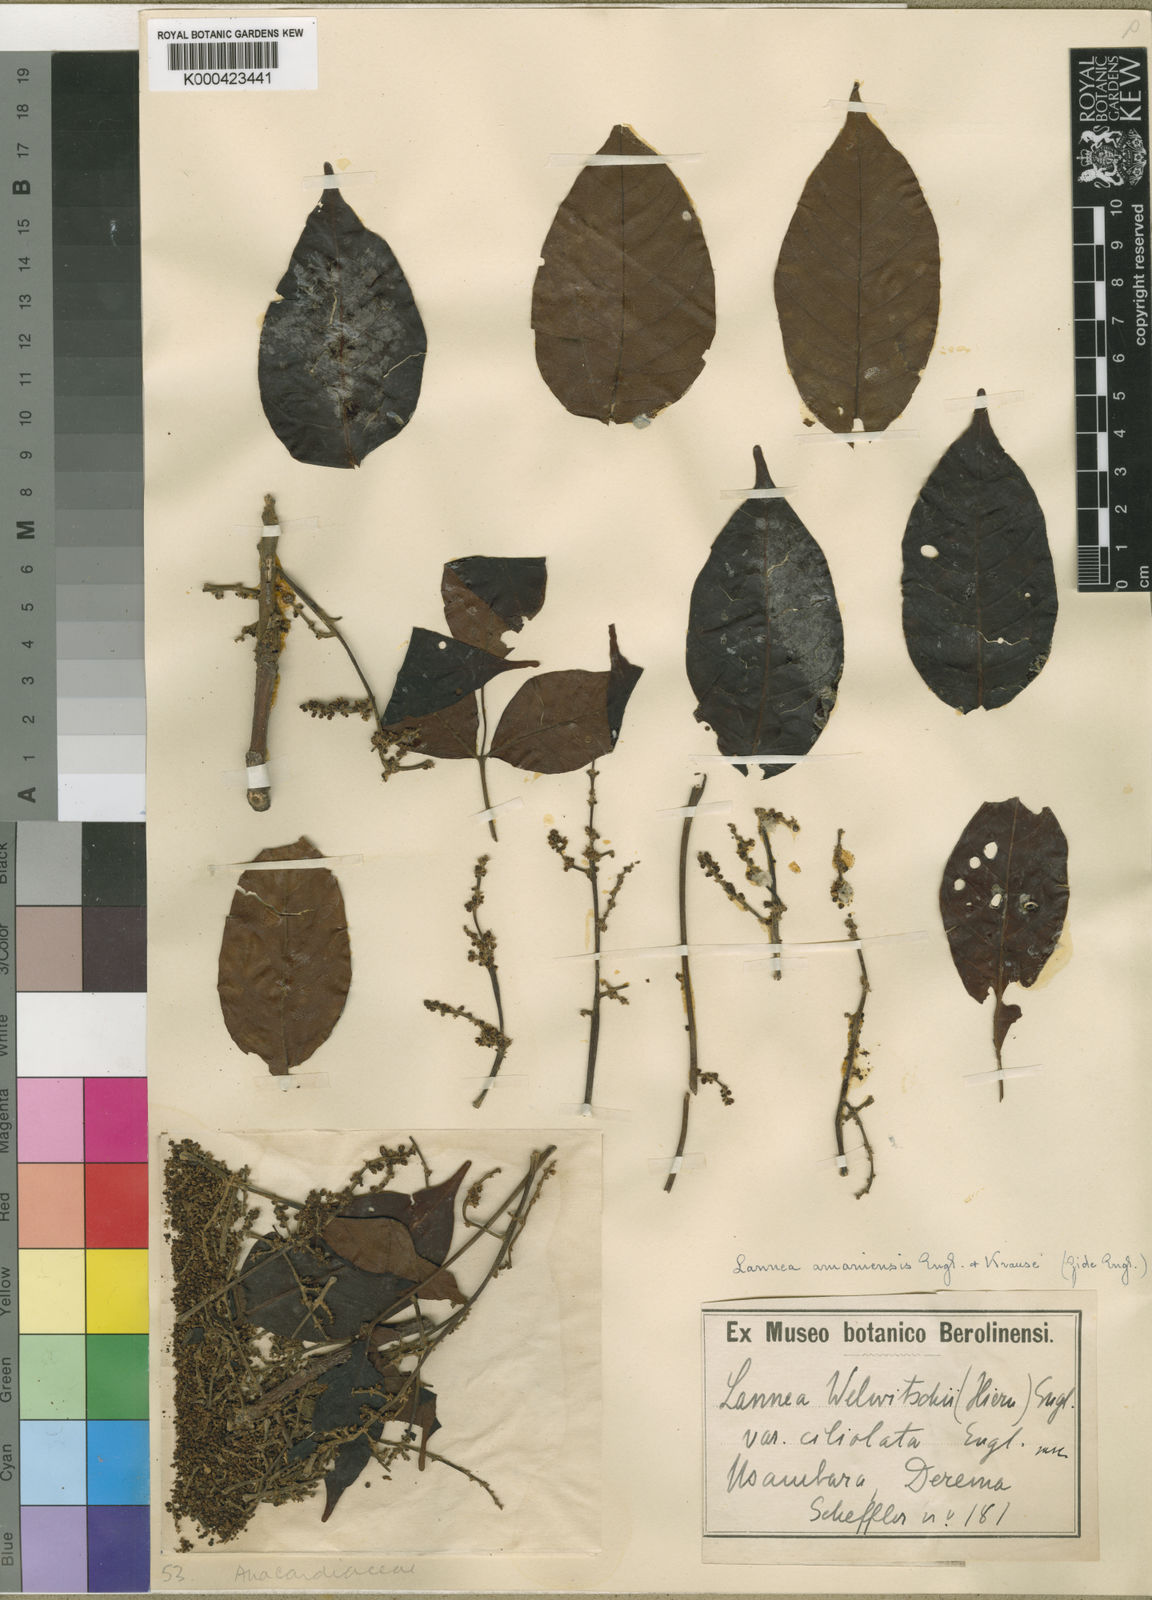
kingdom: Plantae
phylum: Tracheophyta
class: Magnoliopsida
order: Sapindales
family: Anacardiaceae
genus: Lannea
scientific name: Lannea welwitschii
